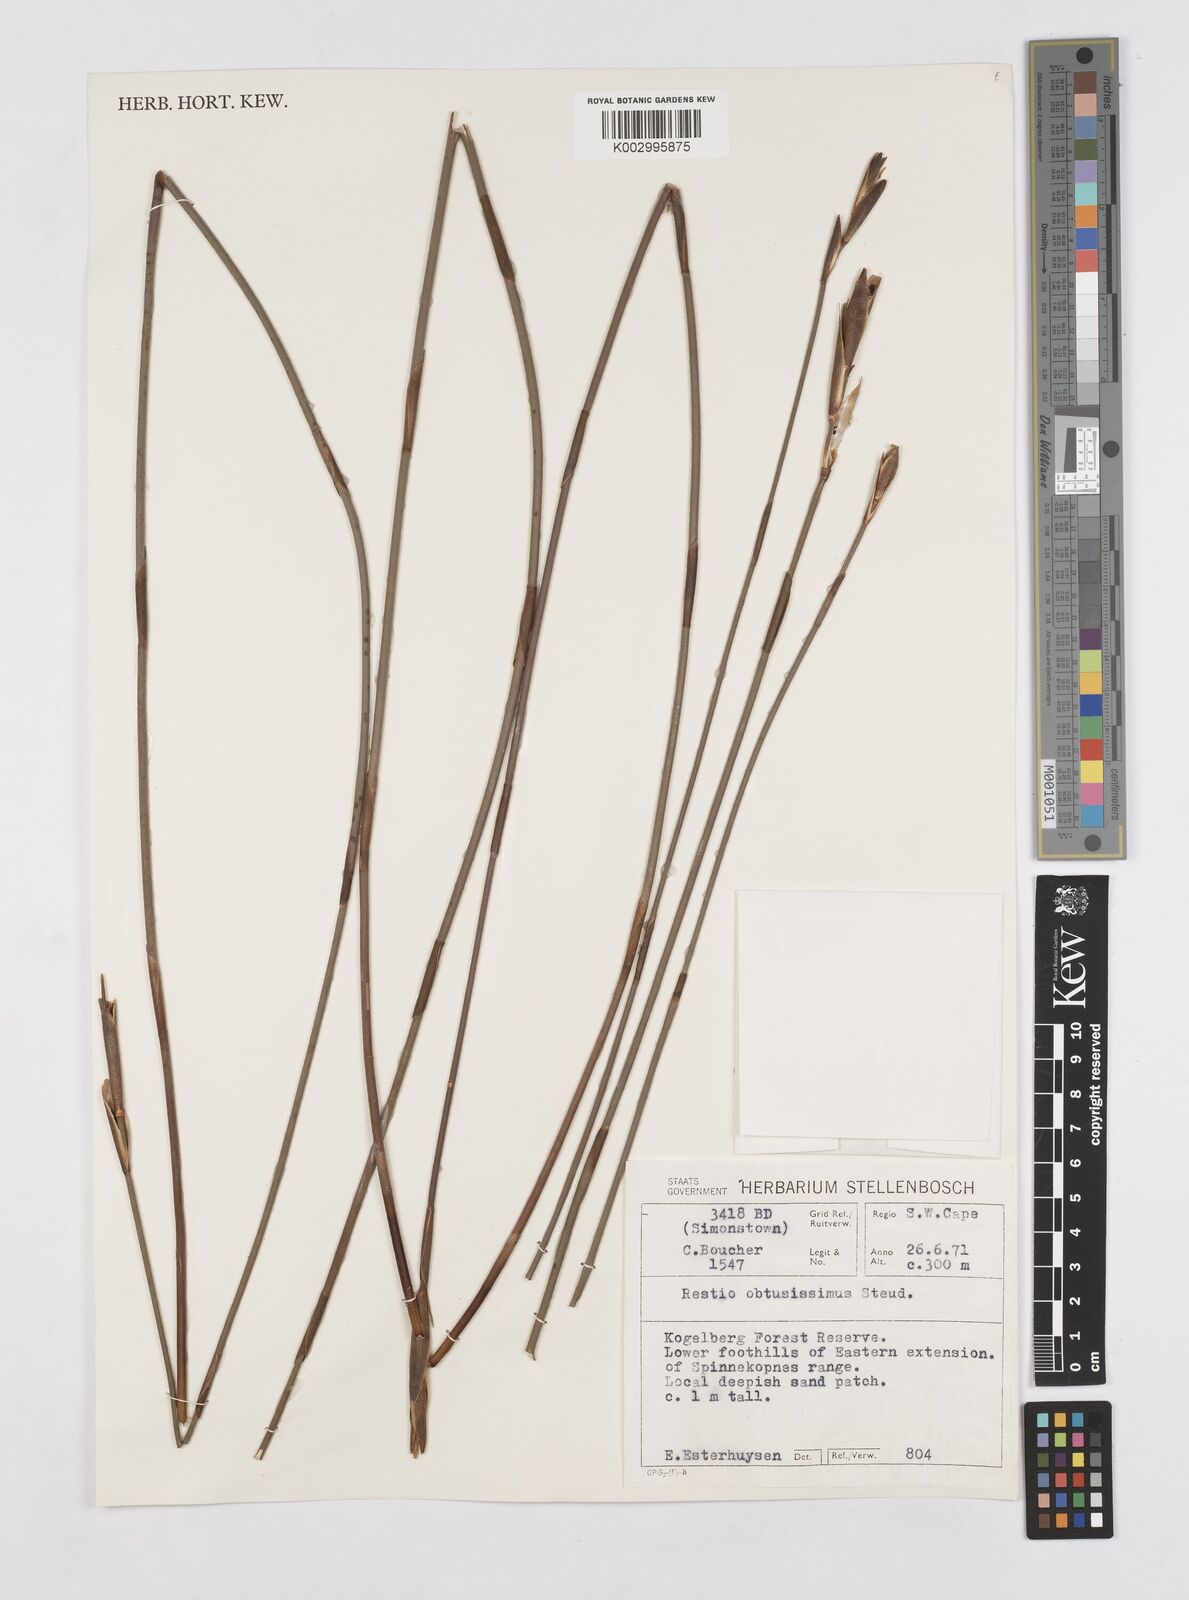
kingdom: Plantae
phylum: Tracheophyta
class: Liliopsida
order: Poales
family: Restionaceae
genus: Nevillea
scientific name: Nevillea obtusissimus
